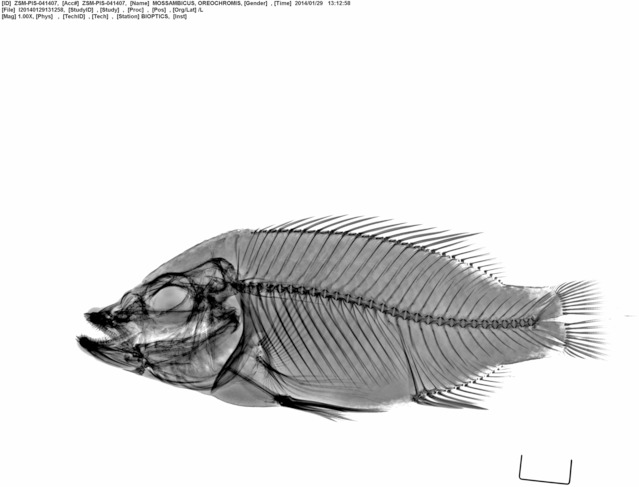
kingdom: Animalia
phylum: Chordata
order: Perciformes
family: Cichlidae
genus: Oreochromis
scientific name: Oreochromis mossambicus
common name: Mozambique tilapia
